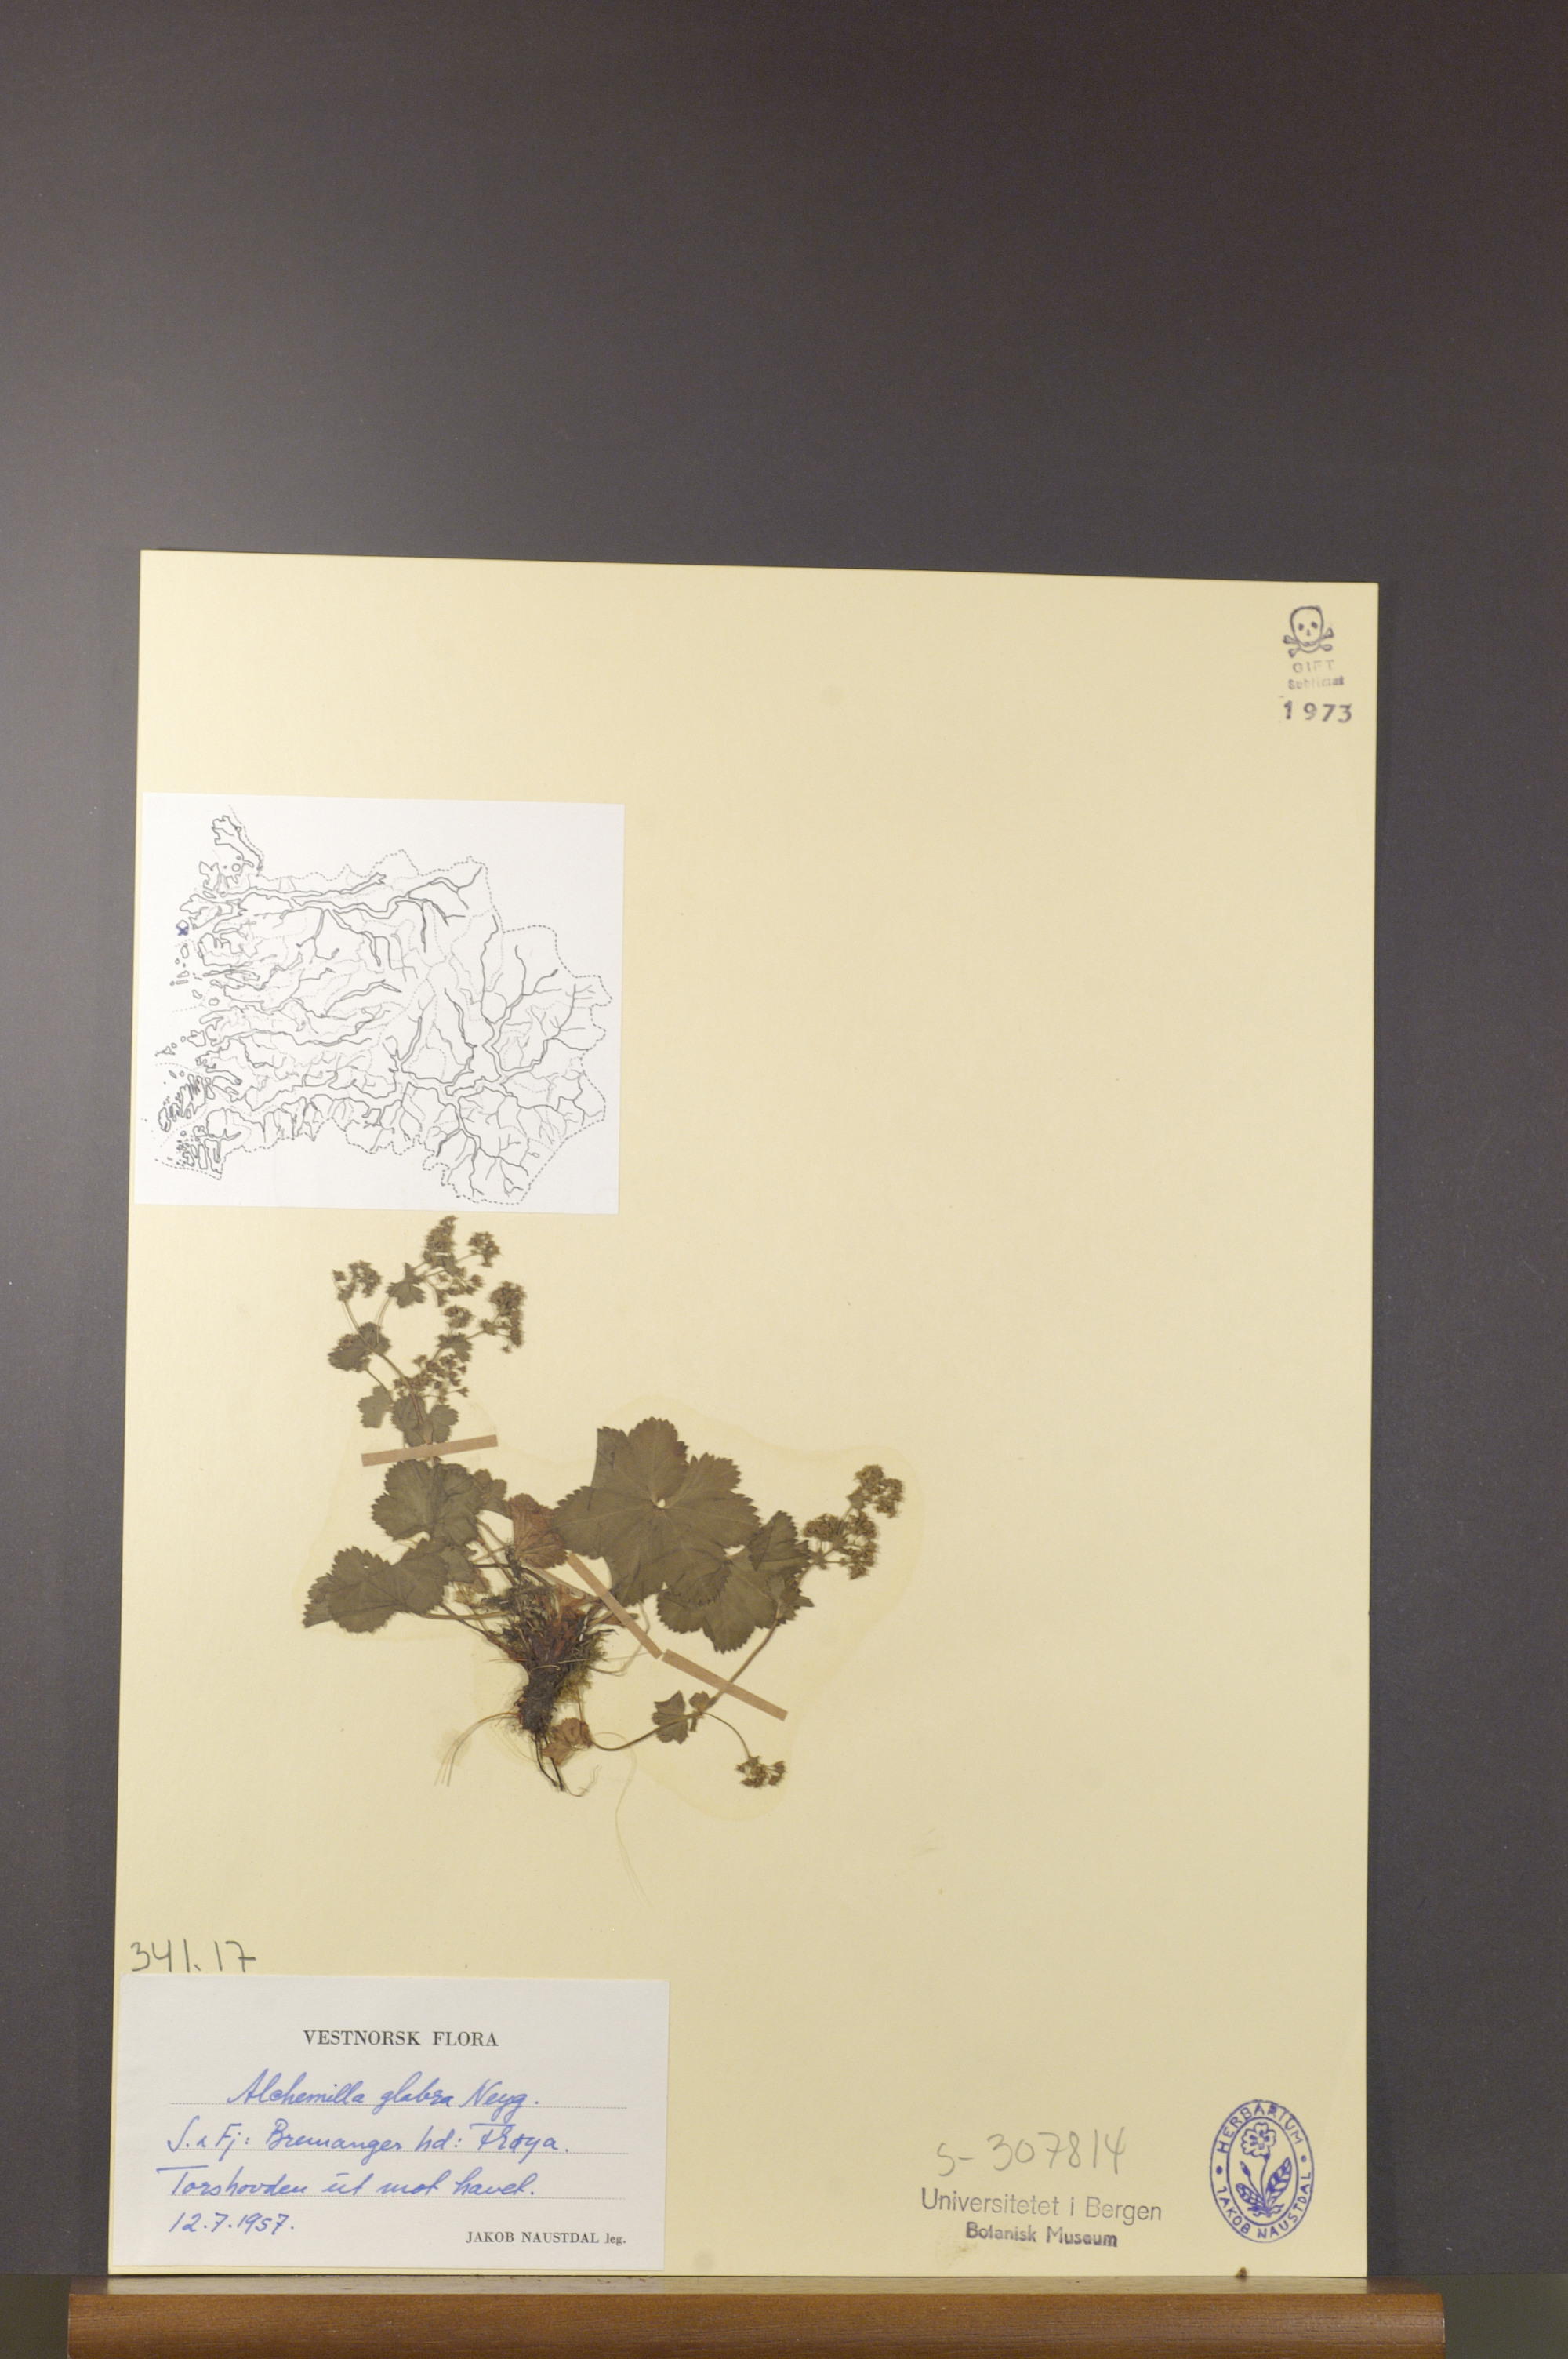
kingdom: Plantae
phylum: Tracheophyta
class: Magnoliopsida
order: Rosales
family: Rosaceae
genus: Alchemilla
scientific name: Alchemilla glabra
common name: Smooth lady's-mantle
